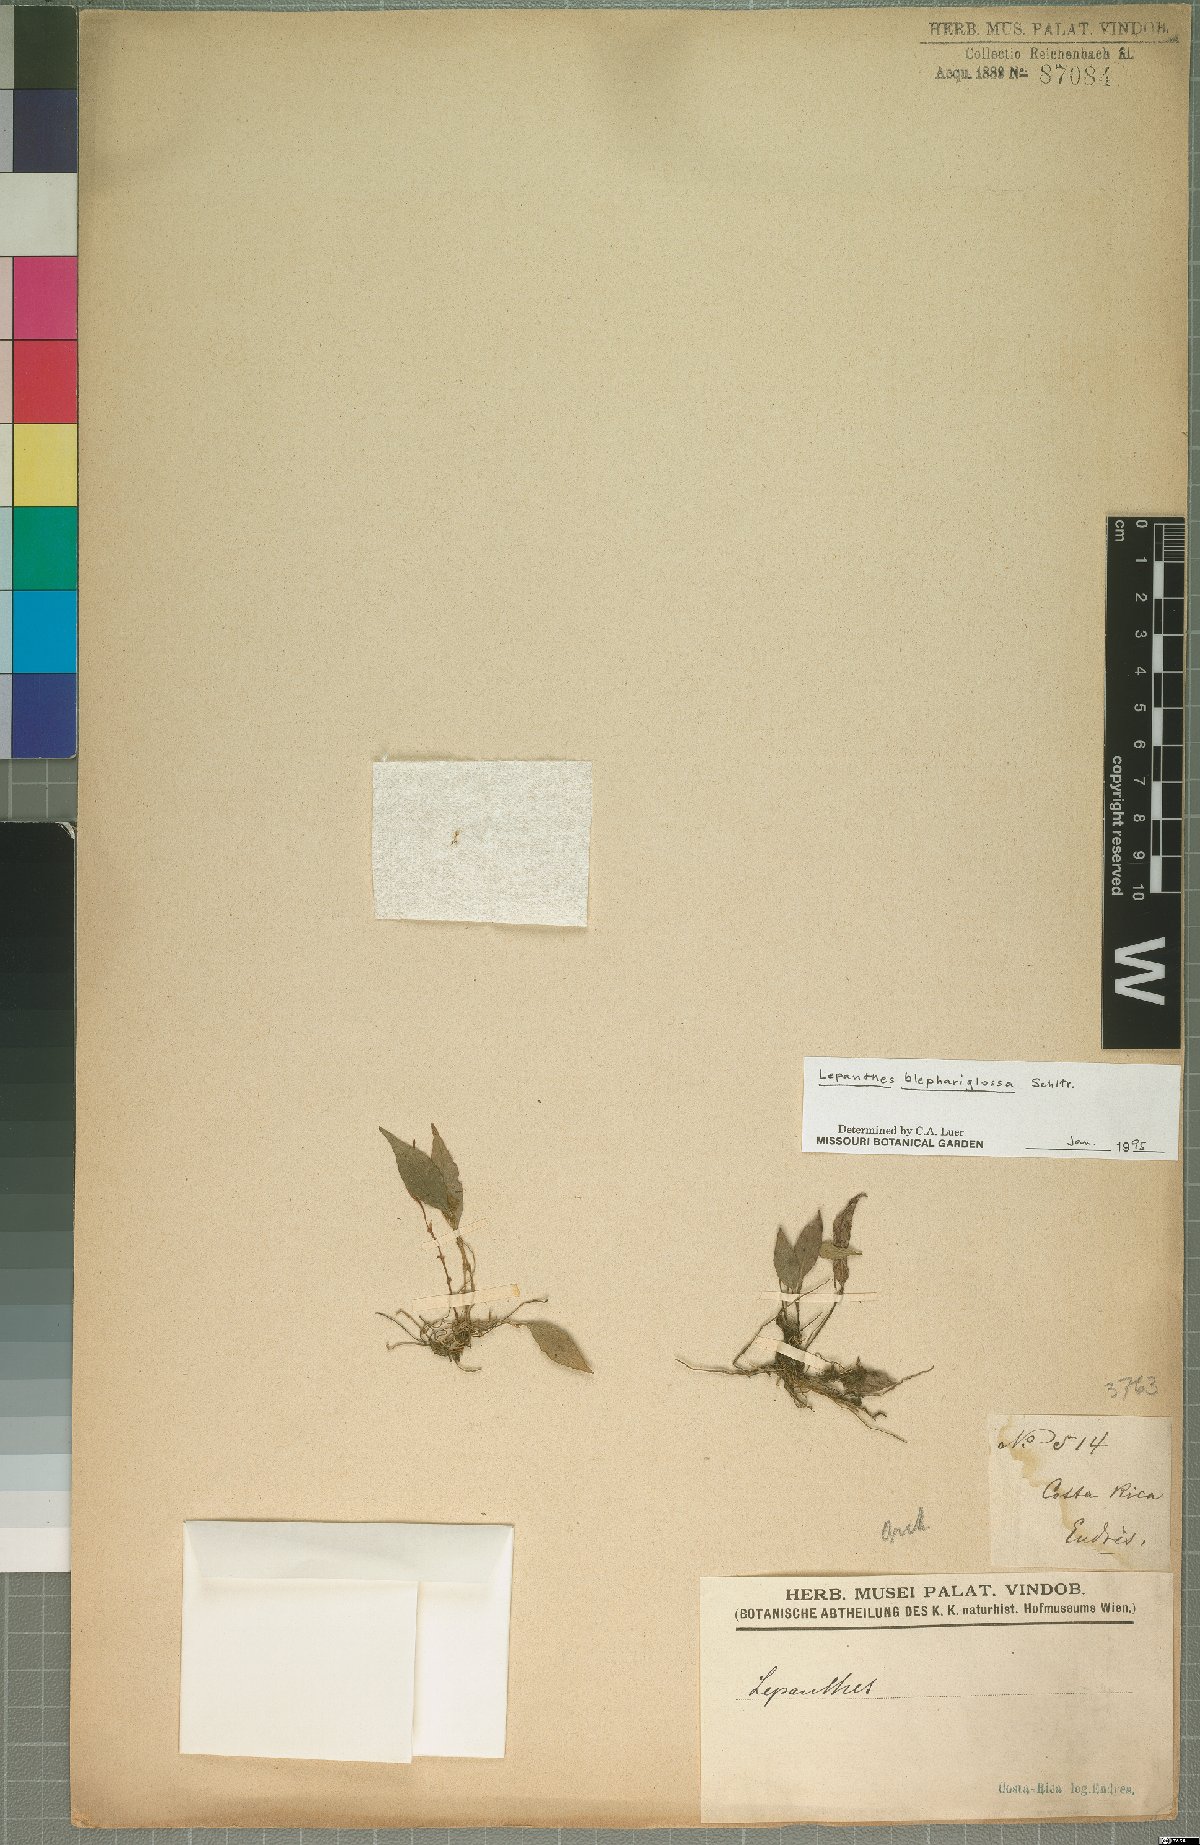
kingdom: Plantae
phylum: Tracheophyta
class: Liliopsida
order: Asparagales
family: Orchidaceae
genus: Lepanthes
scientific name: Lepanthes blephariglossa
